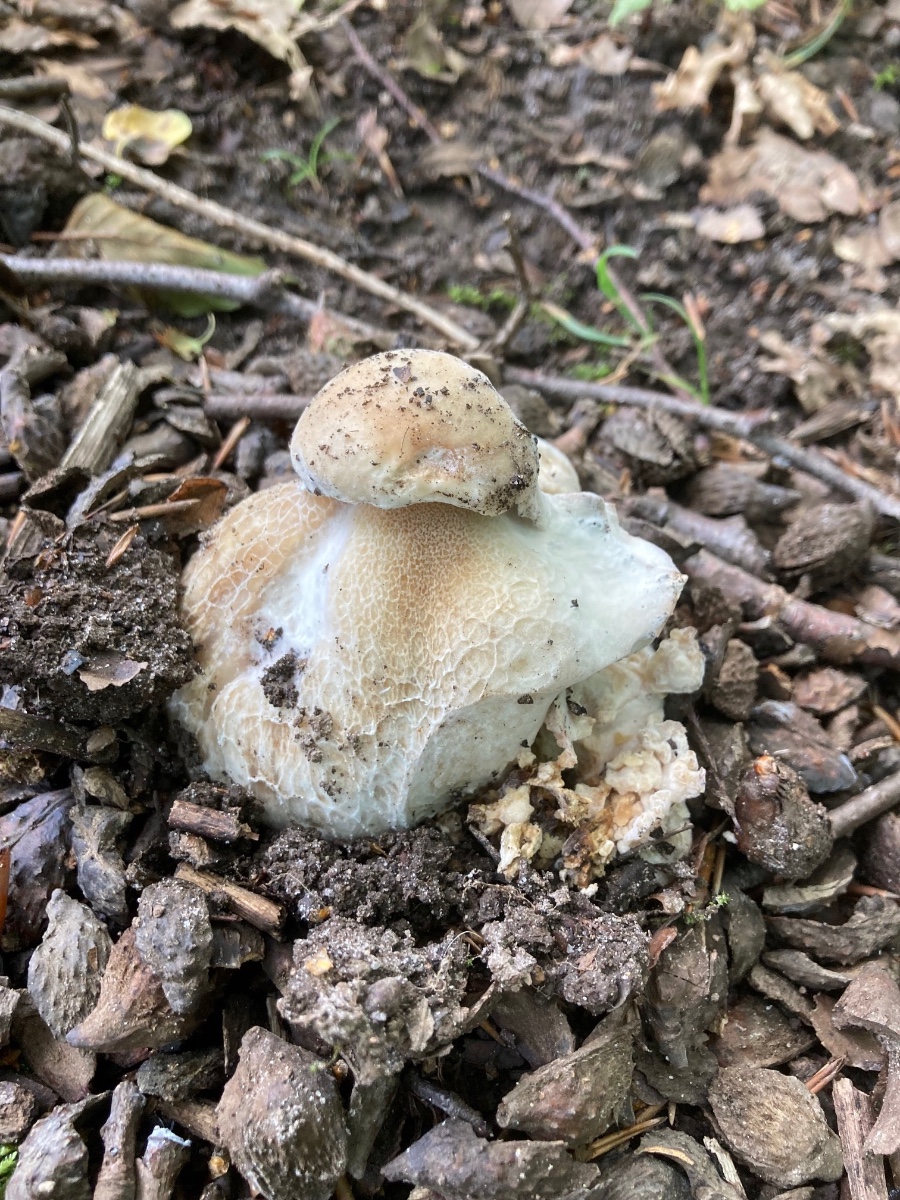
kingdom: Fungi
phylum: Ascomycota
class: Sordariomycetes
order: Hypocreales
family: Hypocreaceae
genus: Hypomyces
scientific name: Hypomyces chrysospermus
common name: gulskimmel-snylteskorpe
